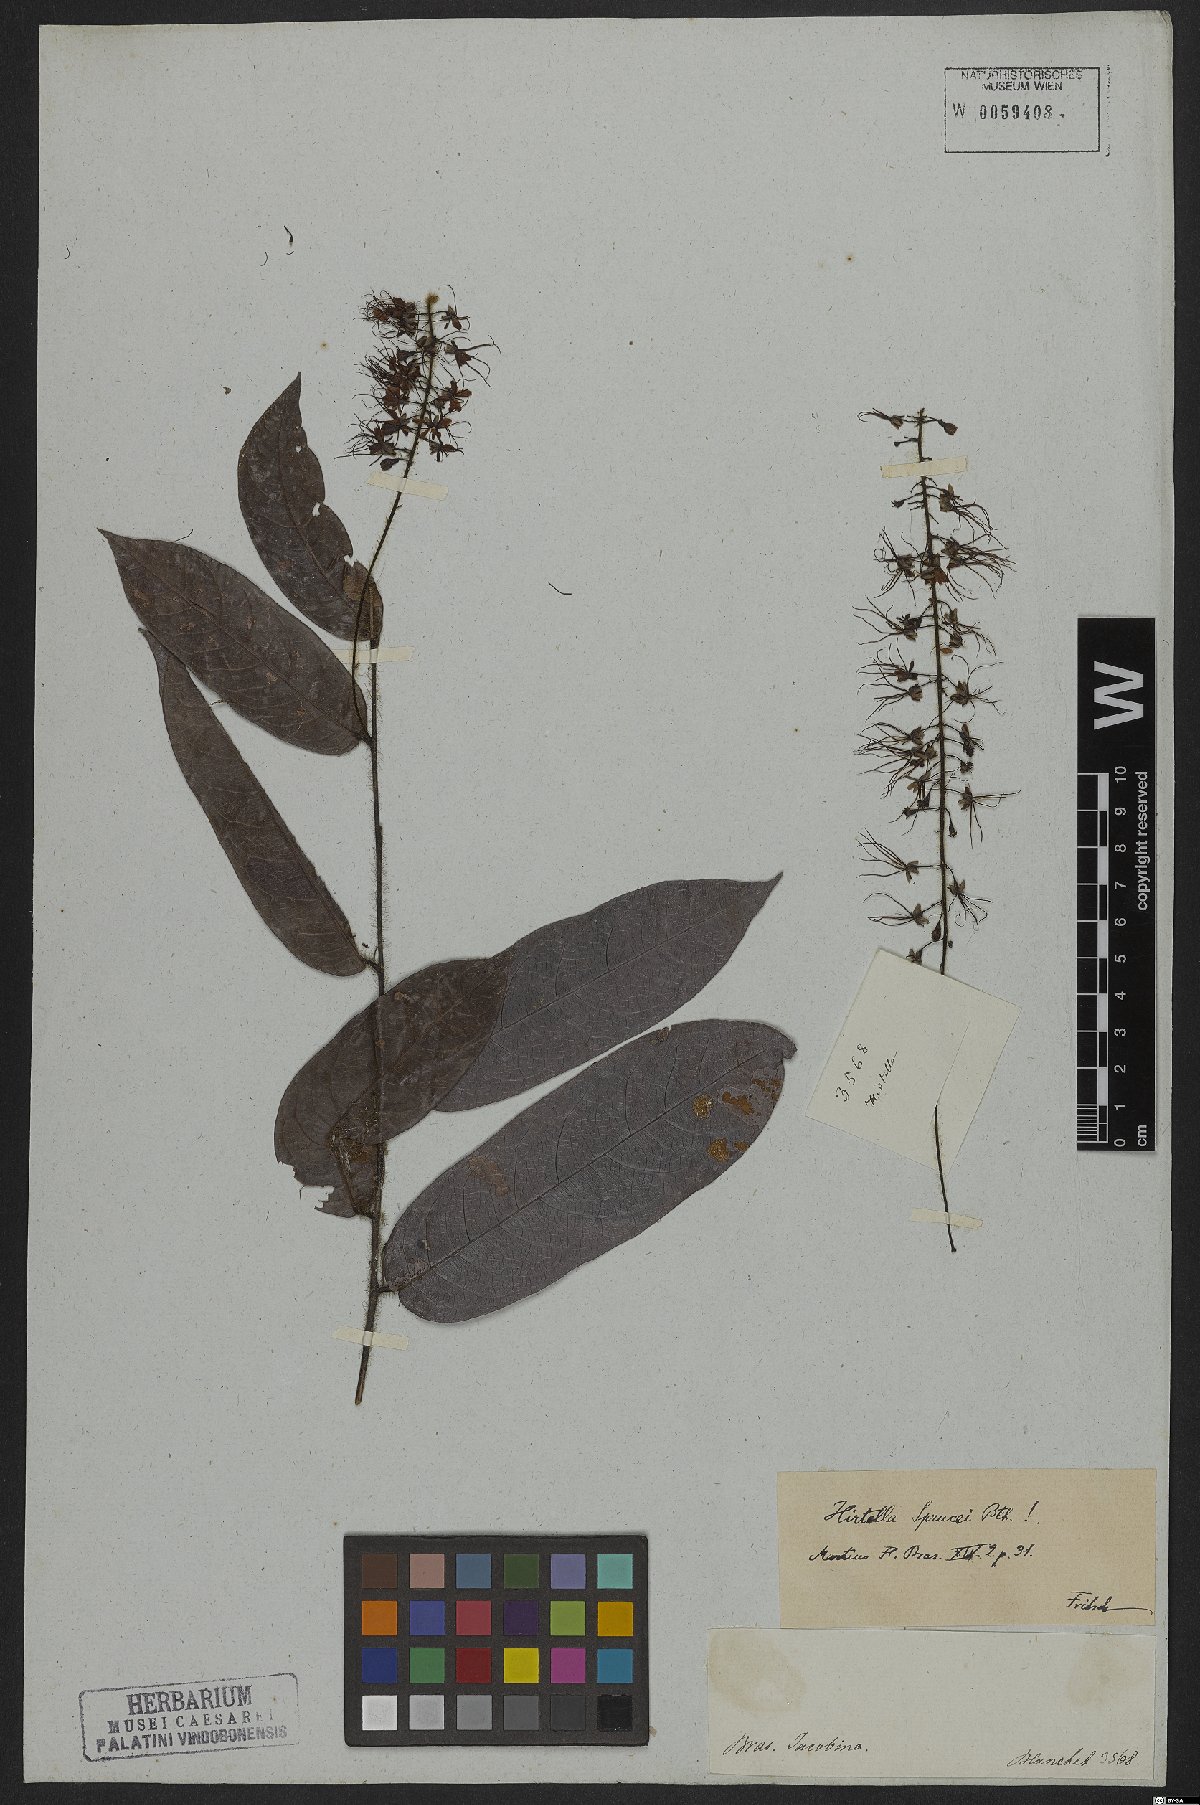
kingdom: Plantae
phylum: Tracheophyta
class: Magnoliopsida
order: Malpighiales
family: Chrysobalanaceae
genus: Hirtella
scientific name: Hirtella sprucei
